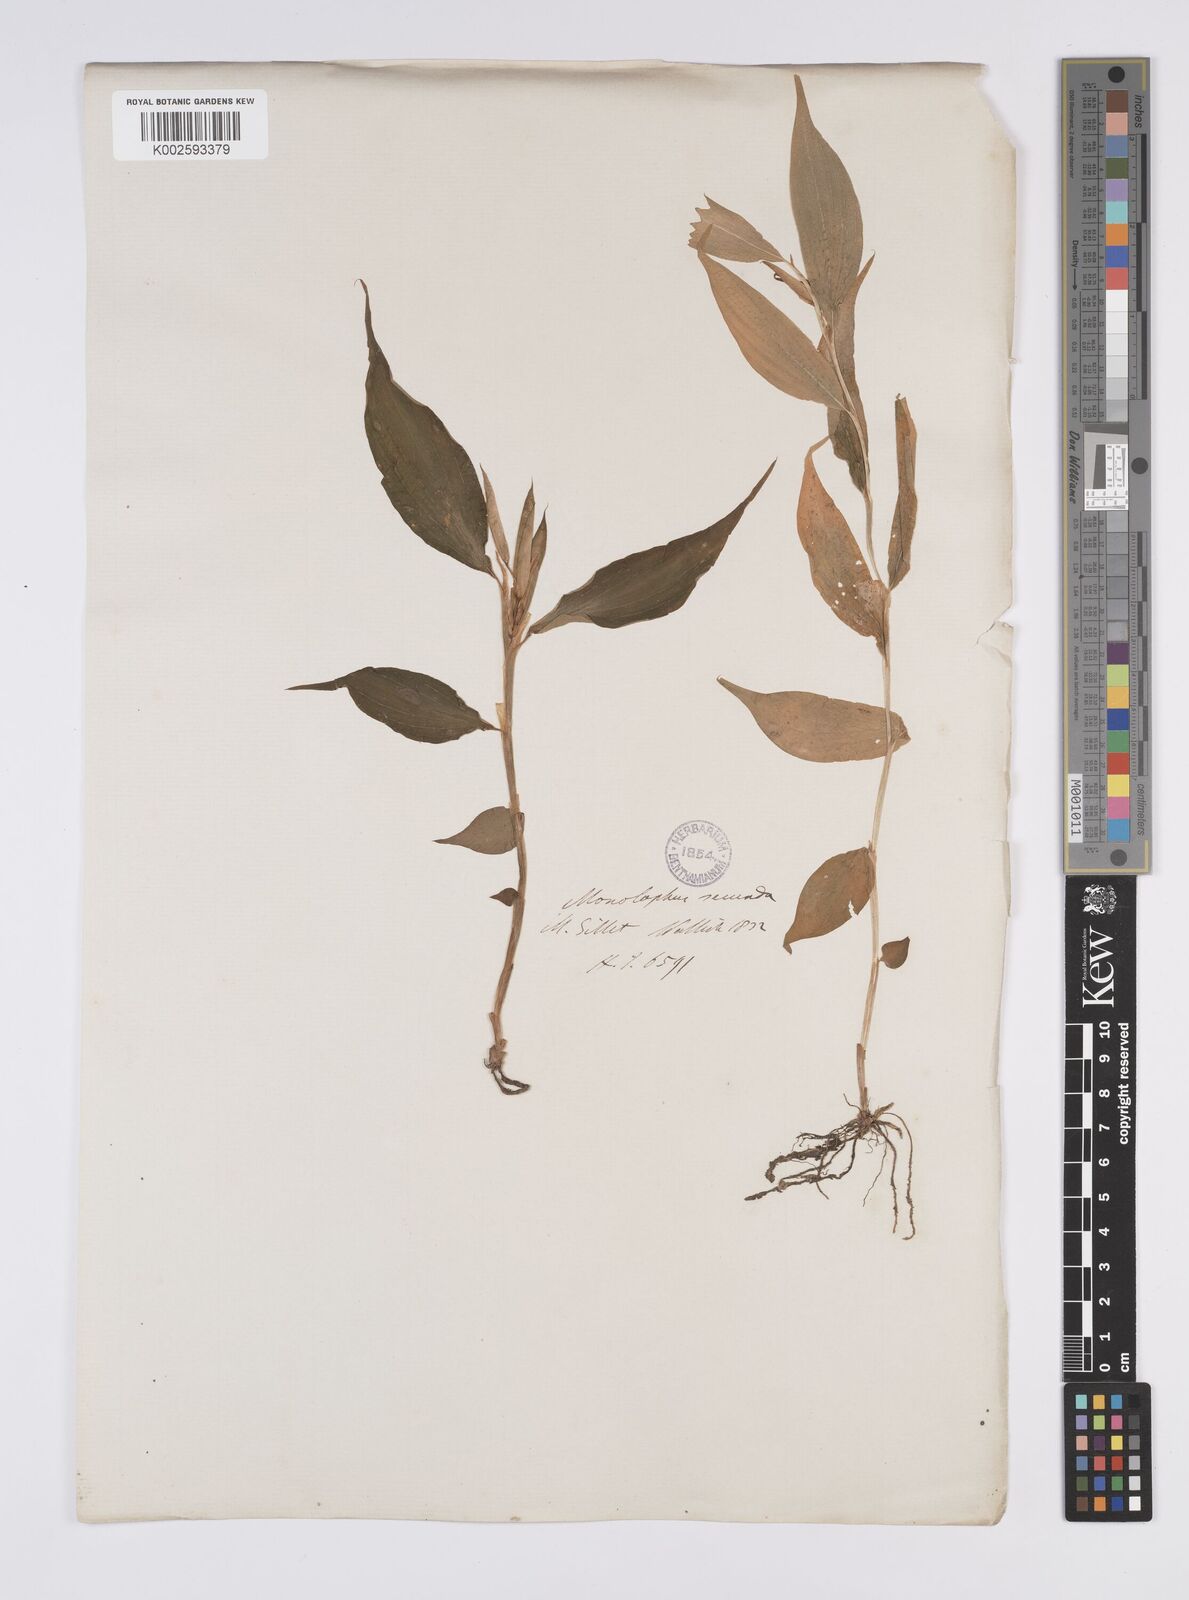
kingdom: Plantae
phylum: Tracheophyta
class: Liliopsida
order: Zingiberales
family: Zingiberaceae
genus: Caulokaempferia
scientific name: Caulokaempferia secunda
